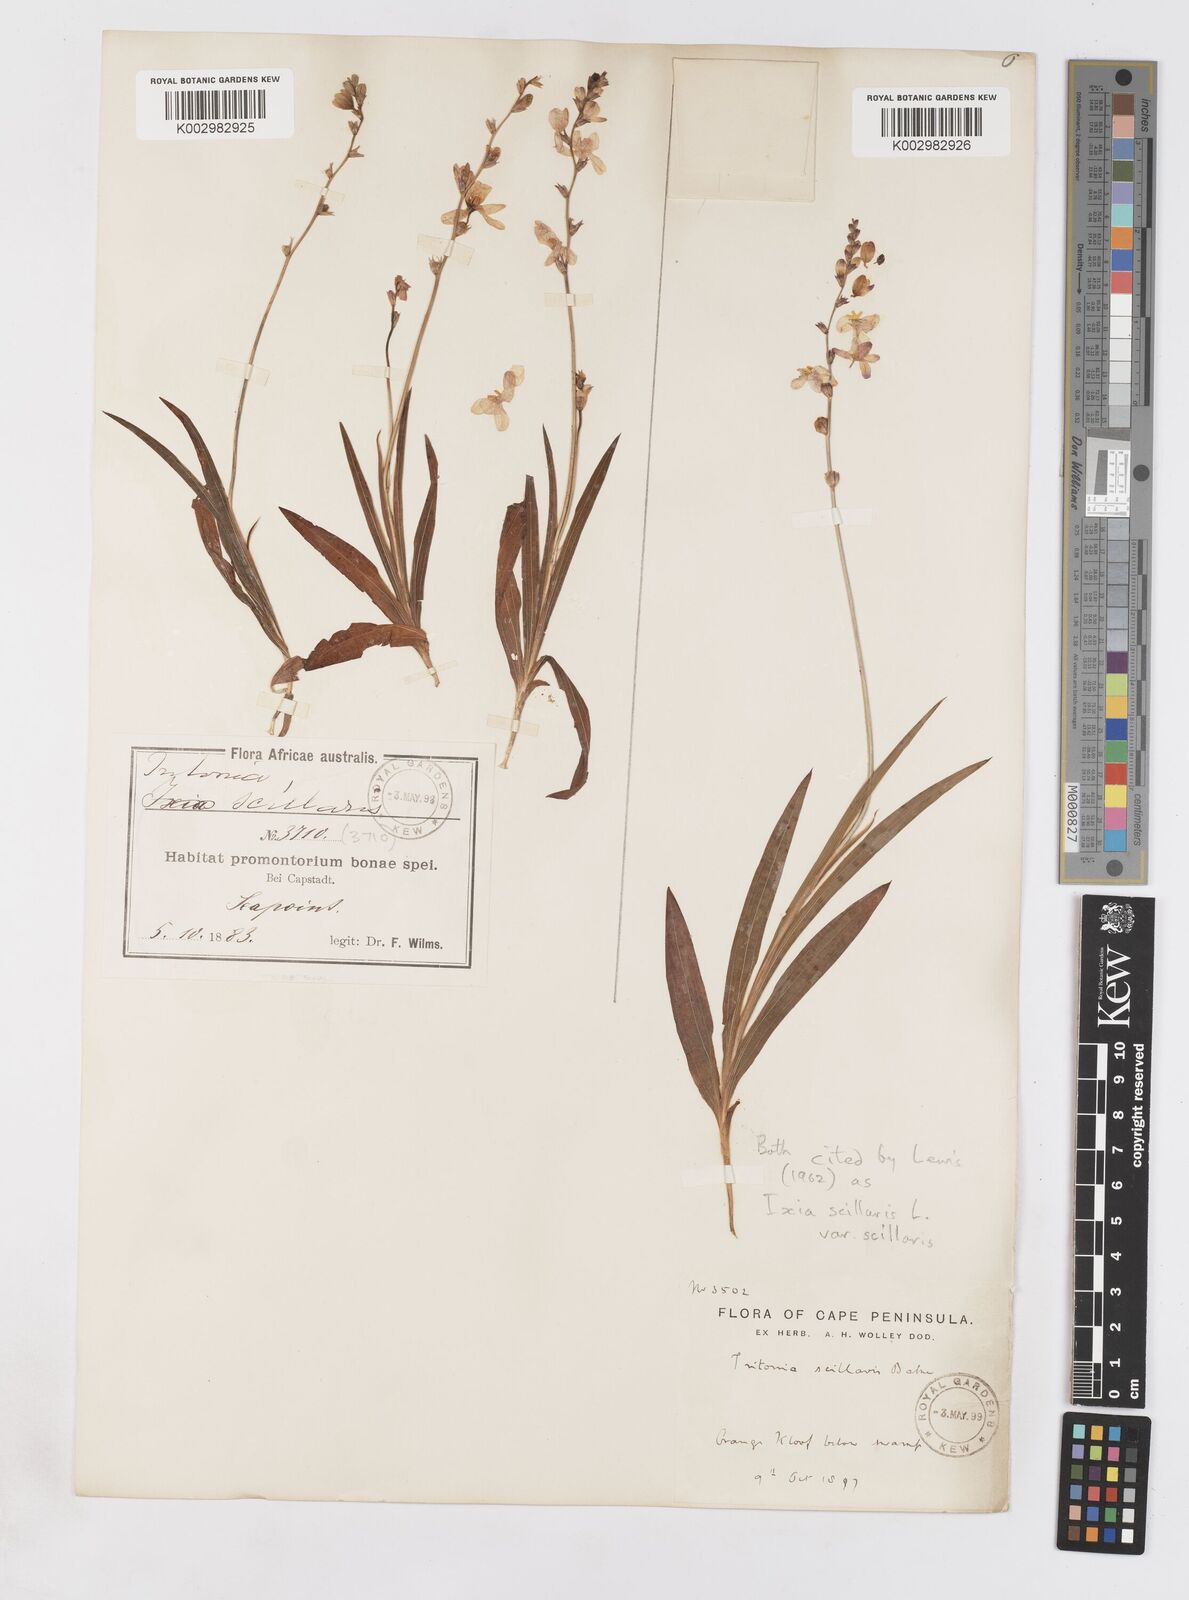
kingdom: Plantae
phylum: Tracheophyta
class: Liliopsida
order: Asparagales
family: Iridaceae
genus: Ixia
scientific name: Ixia scillaris
